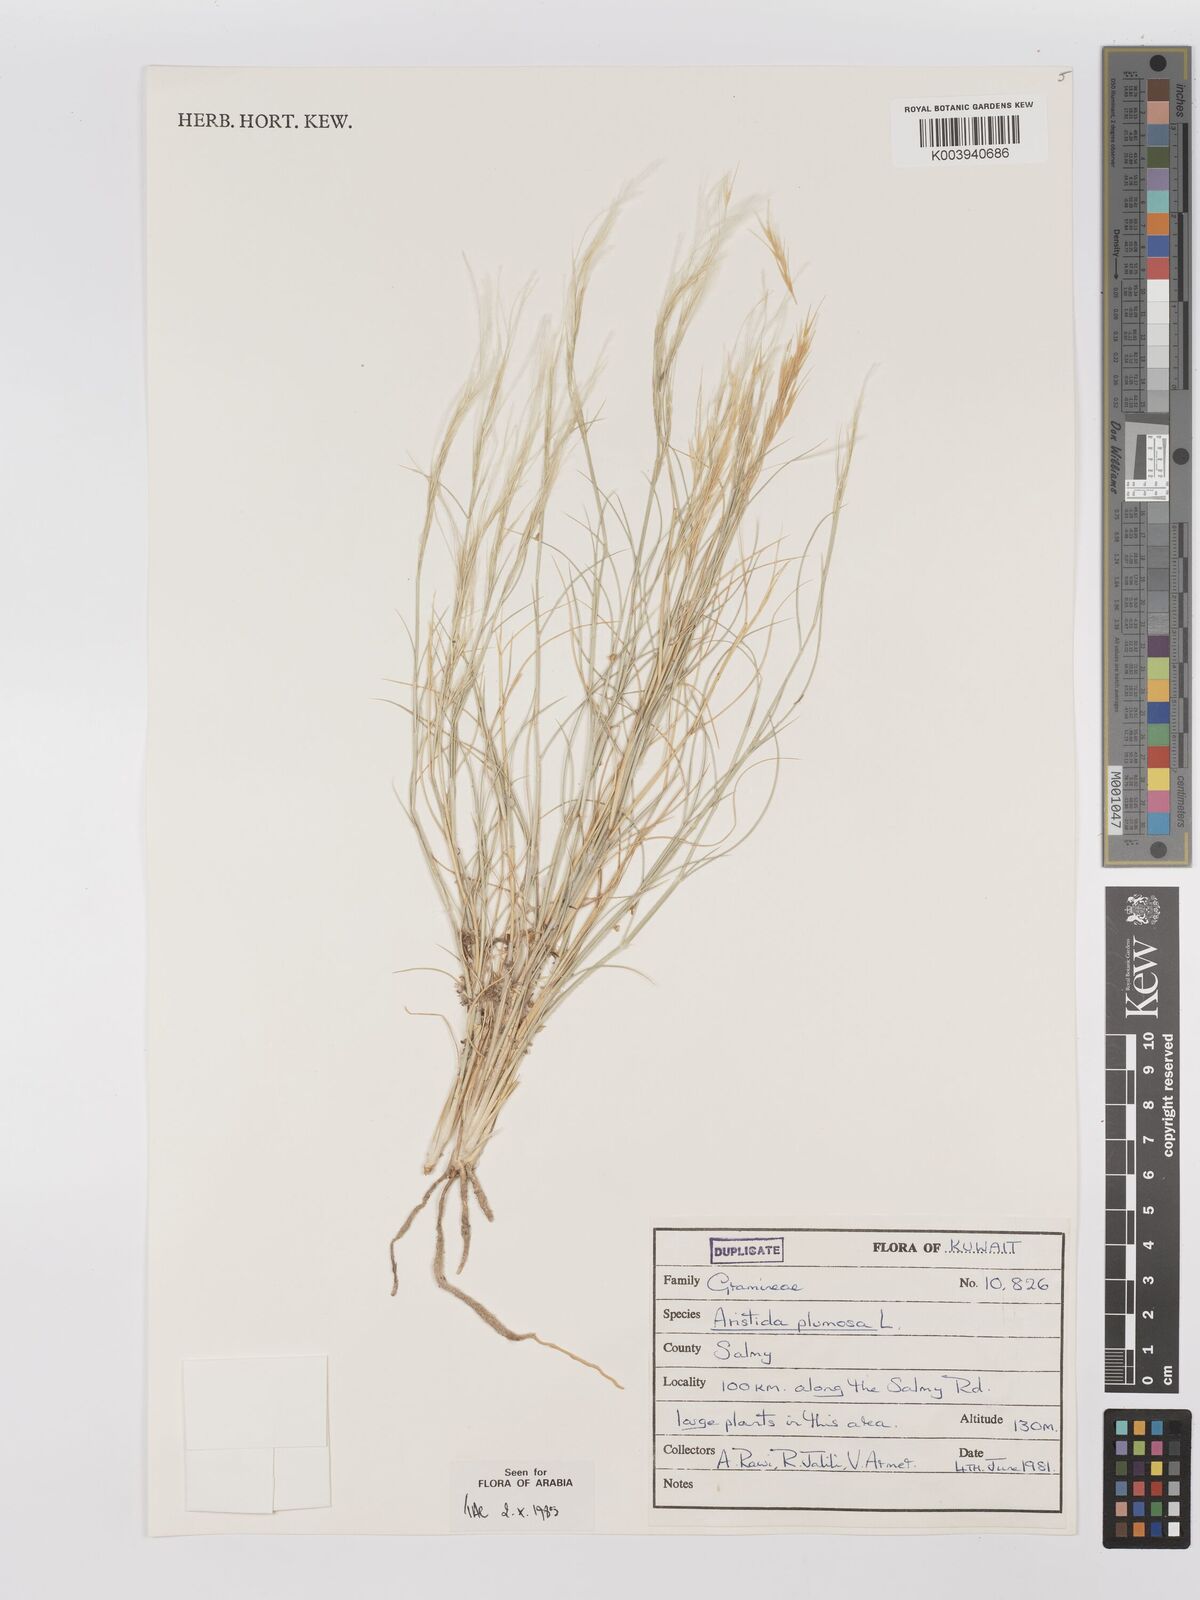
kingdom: Plantae
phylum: Tracheophyta
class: Liliopsida
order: Poales
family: Poaceae
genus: Stipagrostis
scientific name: Stipagrostis plumosa
